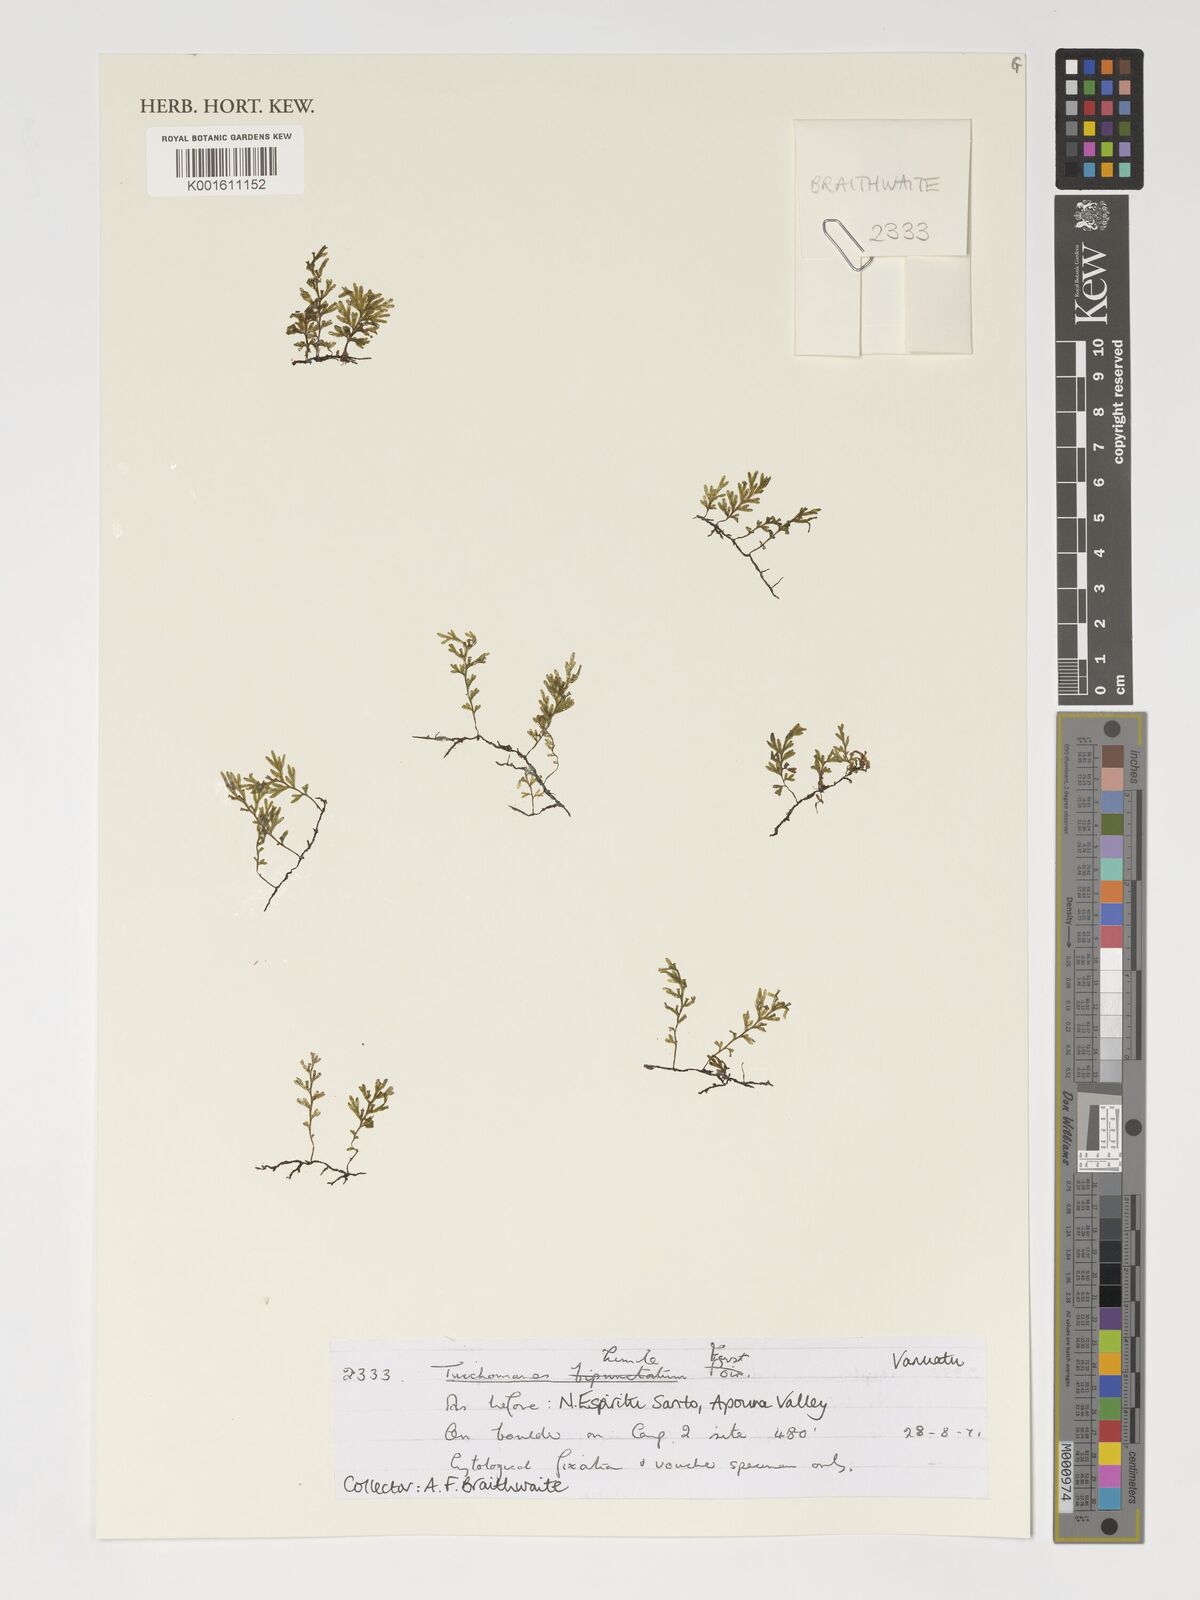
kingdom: Plantae
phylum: Tracheophyta
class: Polypodiopsida
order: Hymenophyllales
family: Hymenophyllaceae
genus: Crepidomanes
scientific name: Crepidomanes humile
